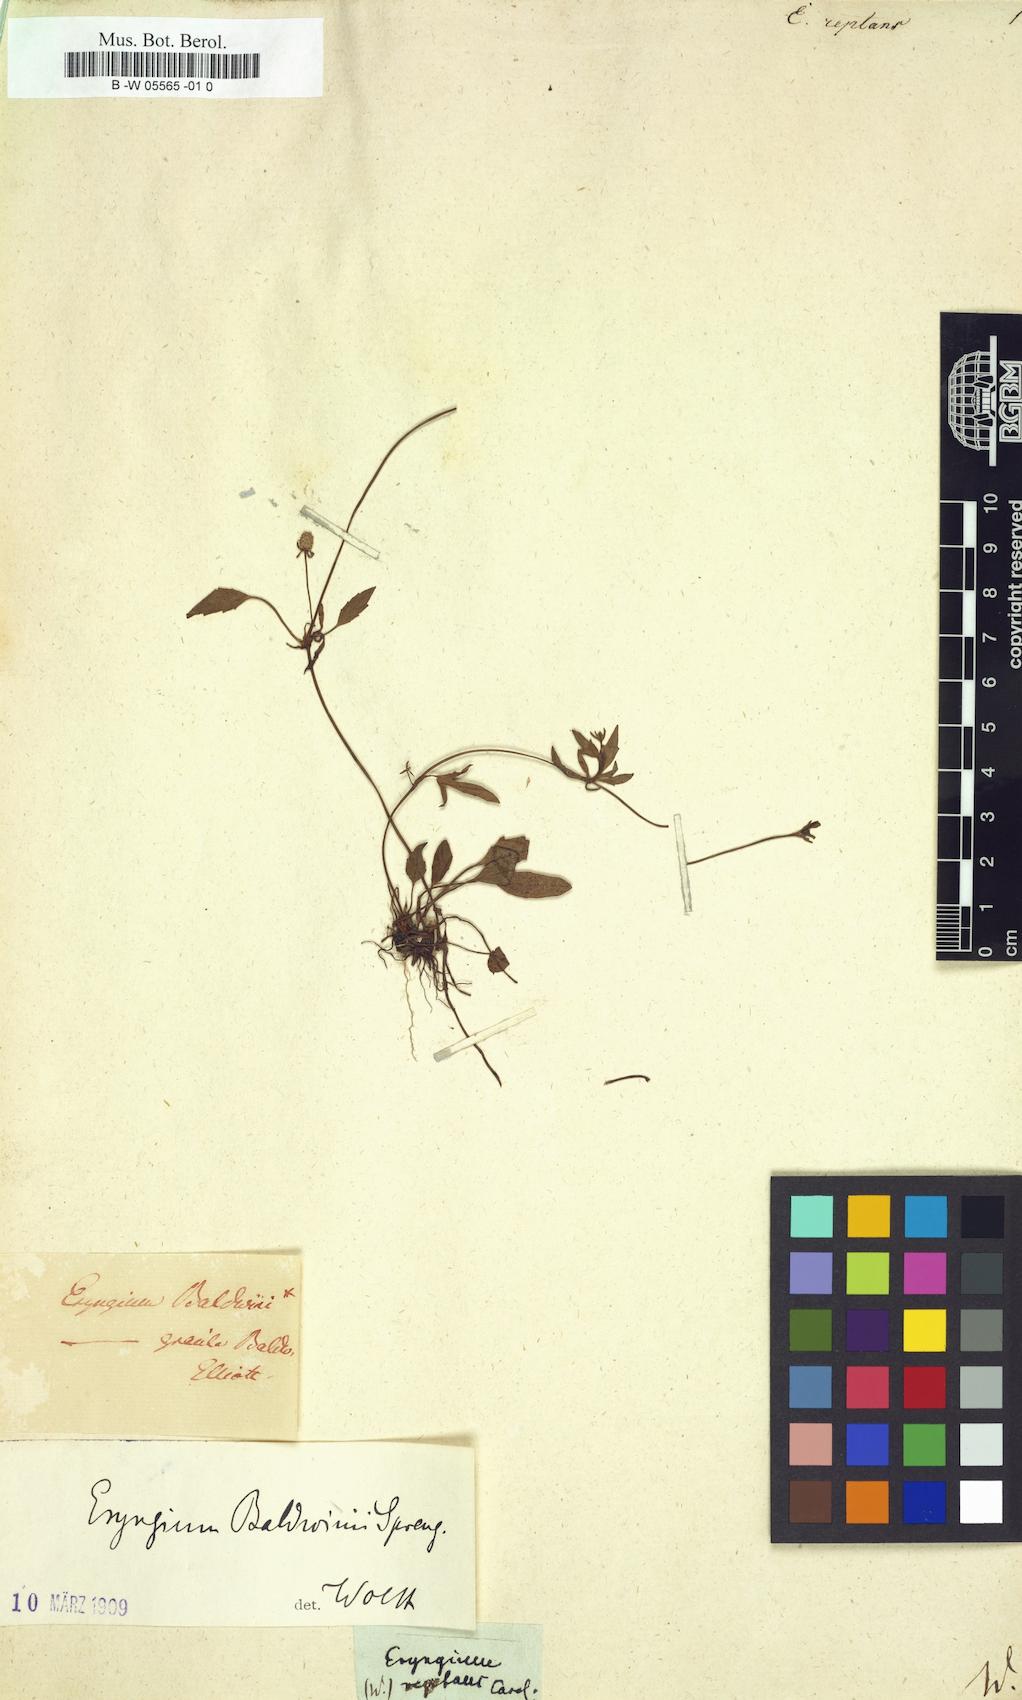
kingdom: Plantae
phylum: Tracheophyta
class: Magnoliopsida
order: Apiales
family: Apiaceae
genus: Eryngium
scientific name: Eryngium
